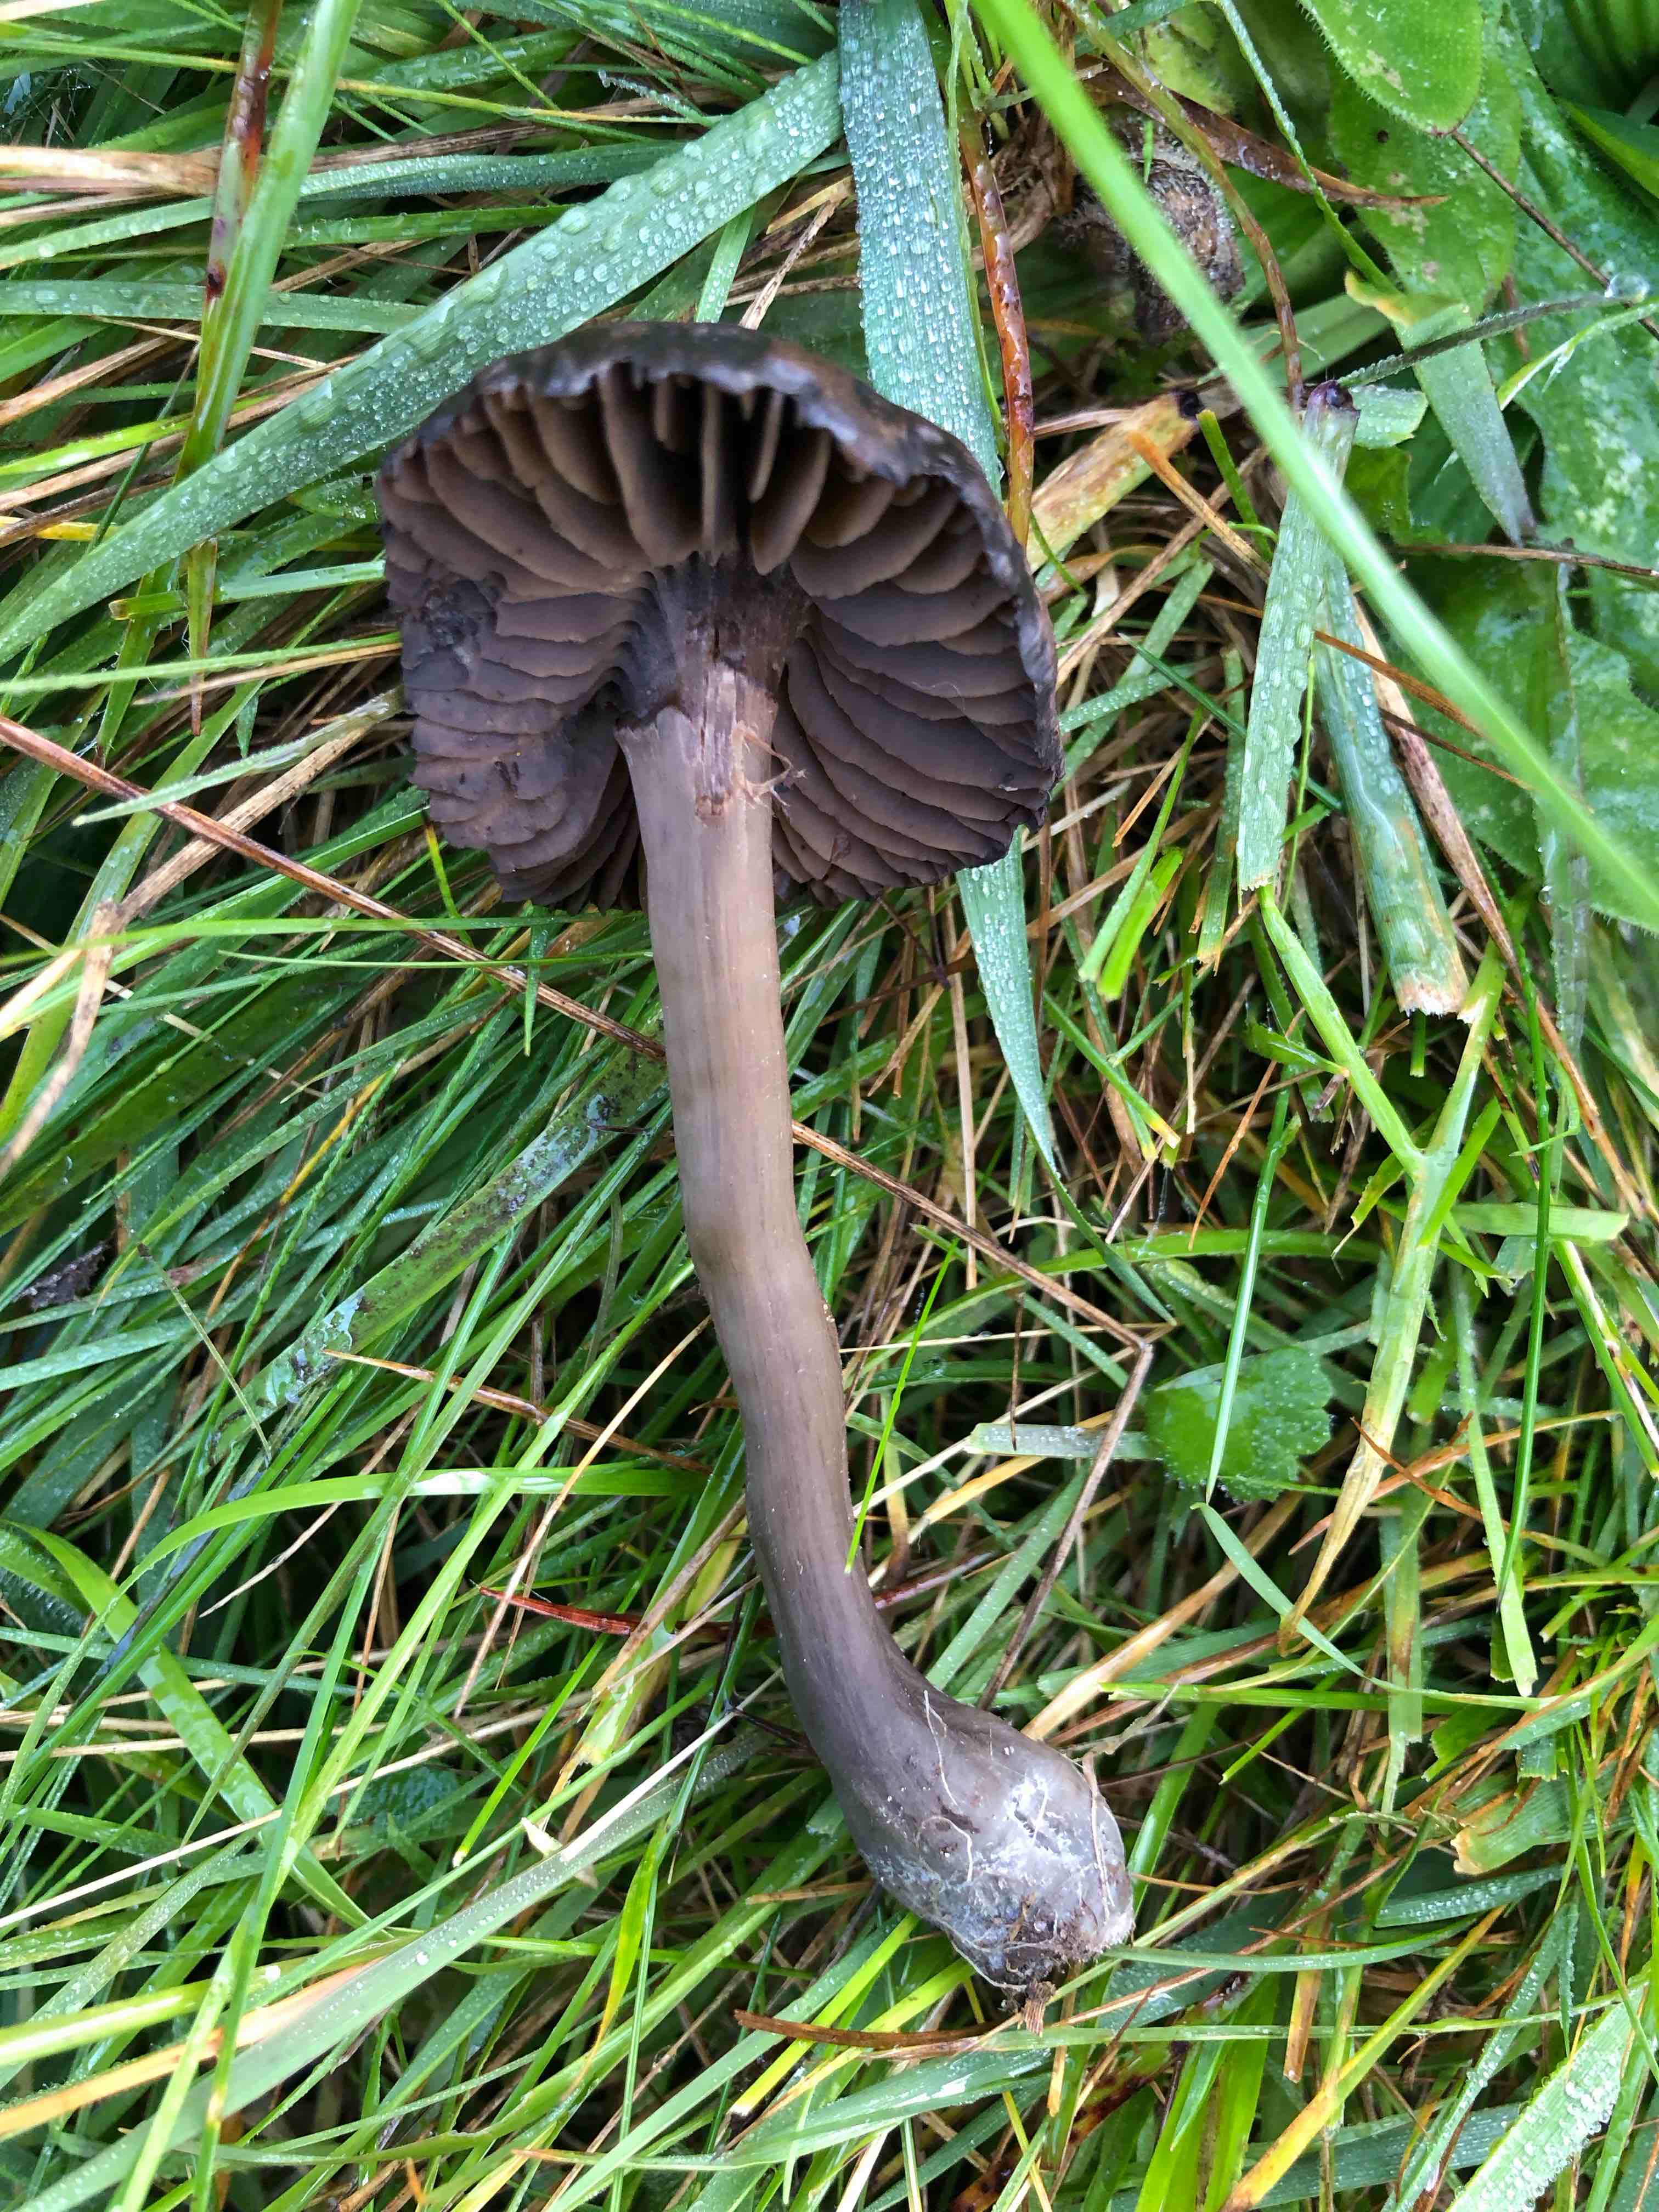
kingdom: Fungi
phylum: Basidiomycota
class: Agaricomycetes
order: Agaricales
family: Hygrophoraceae
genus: Neohygrocybe
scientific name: Neohygrocybe ovina
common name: rødmende vokshat
